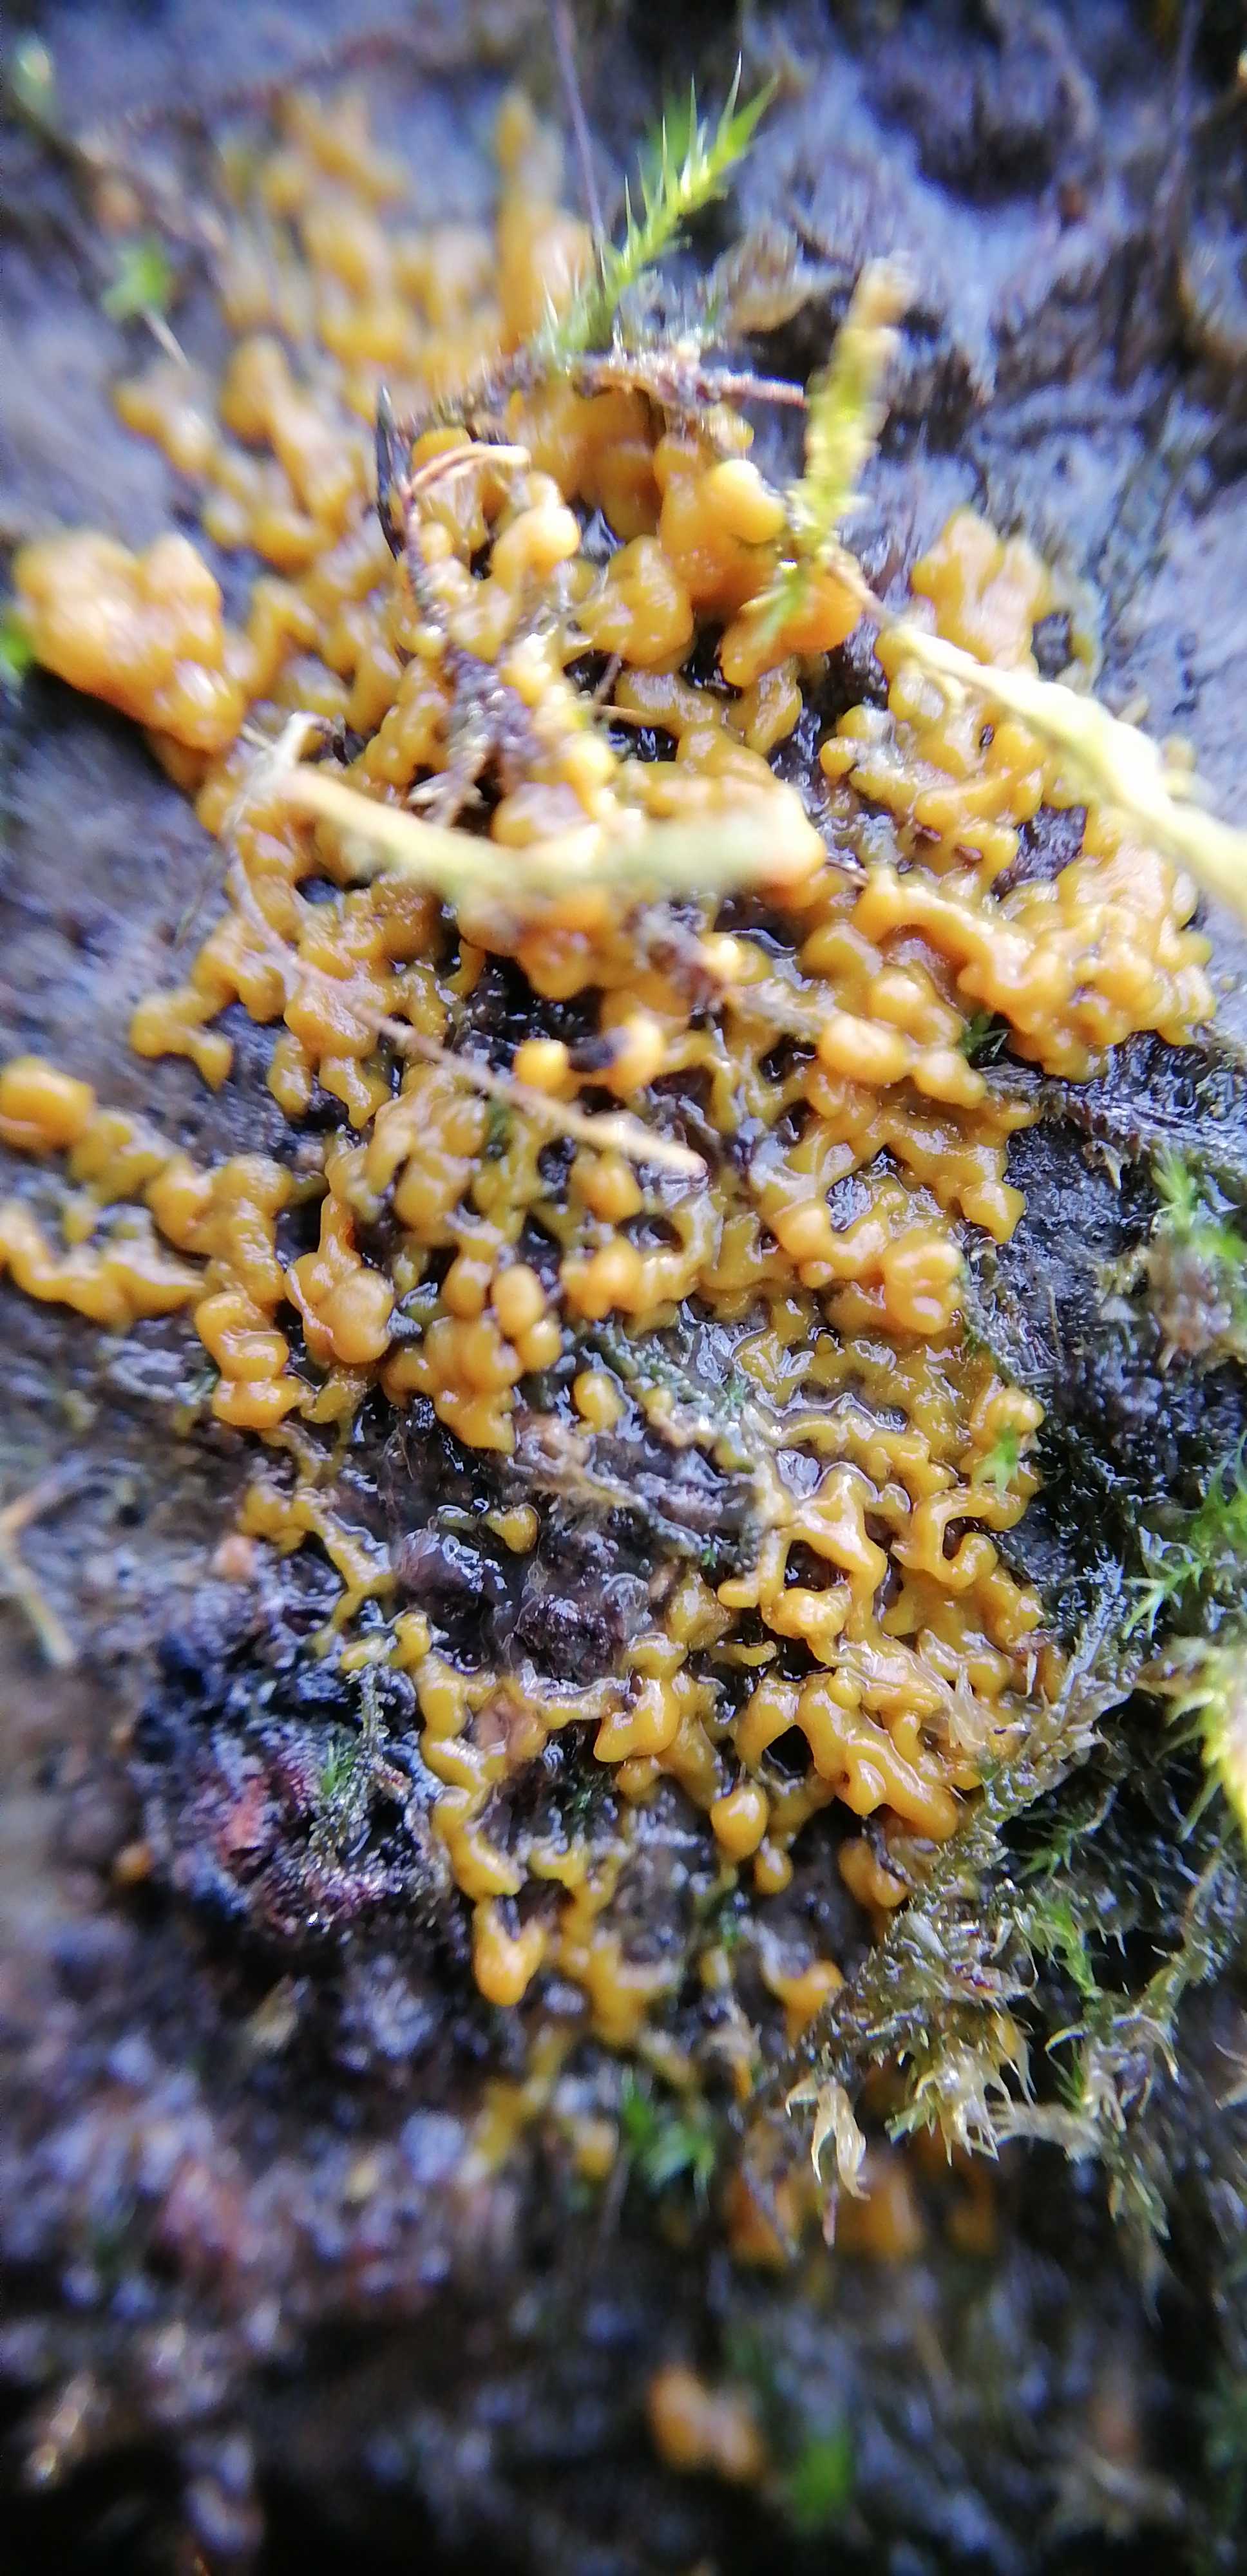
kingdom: Protozoa
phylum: Mycetozoa
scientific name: Mycetozoa
